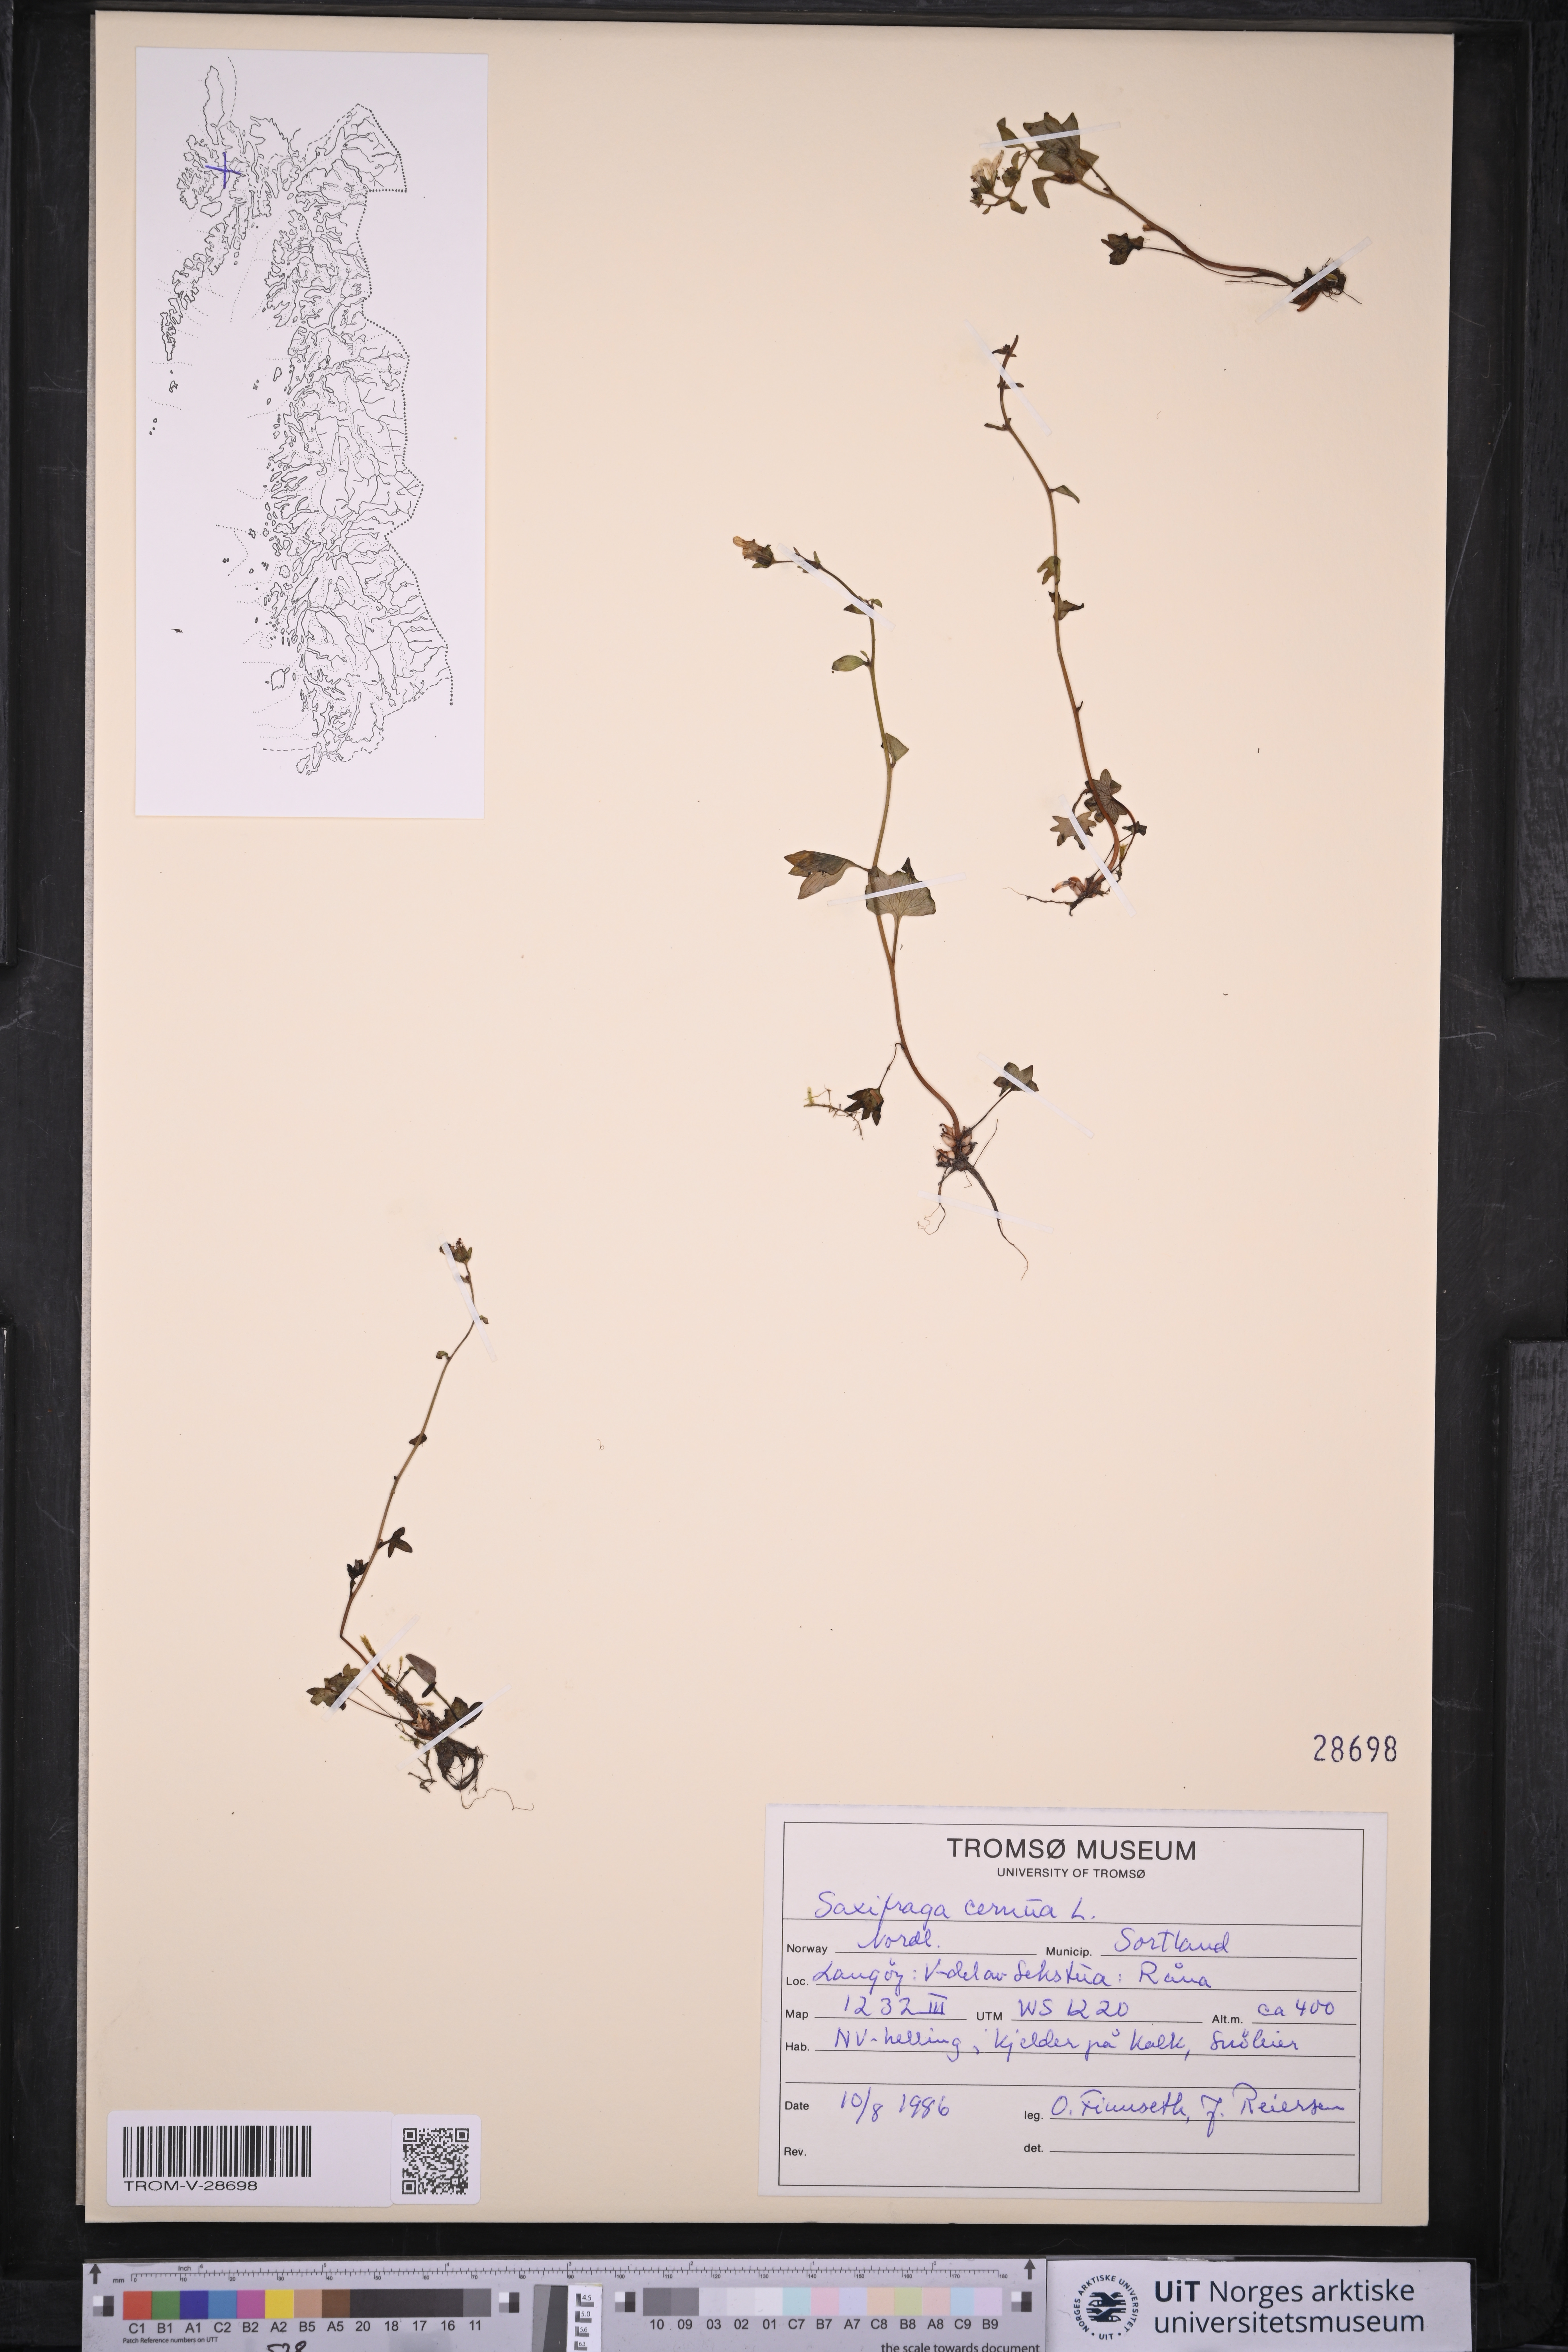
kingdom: Plantae
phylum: Tracheophyta
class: Magnoliopsida
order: Saxifragales
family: Saxifragaceae
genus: Saxifraga
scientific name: Saxifraga cernua
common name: Drooping saxifrage
